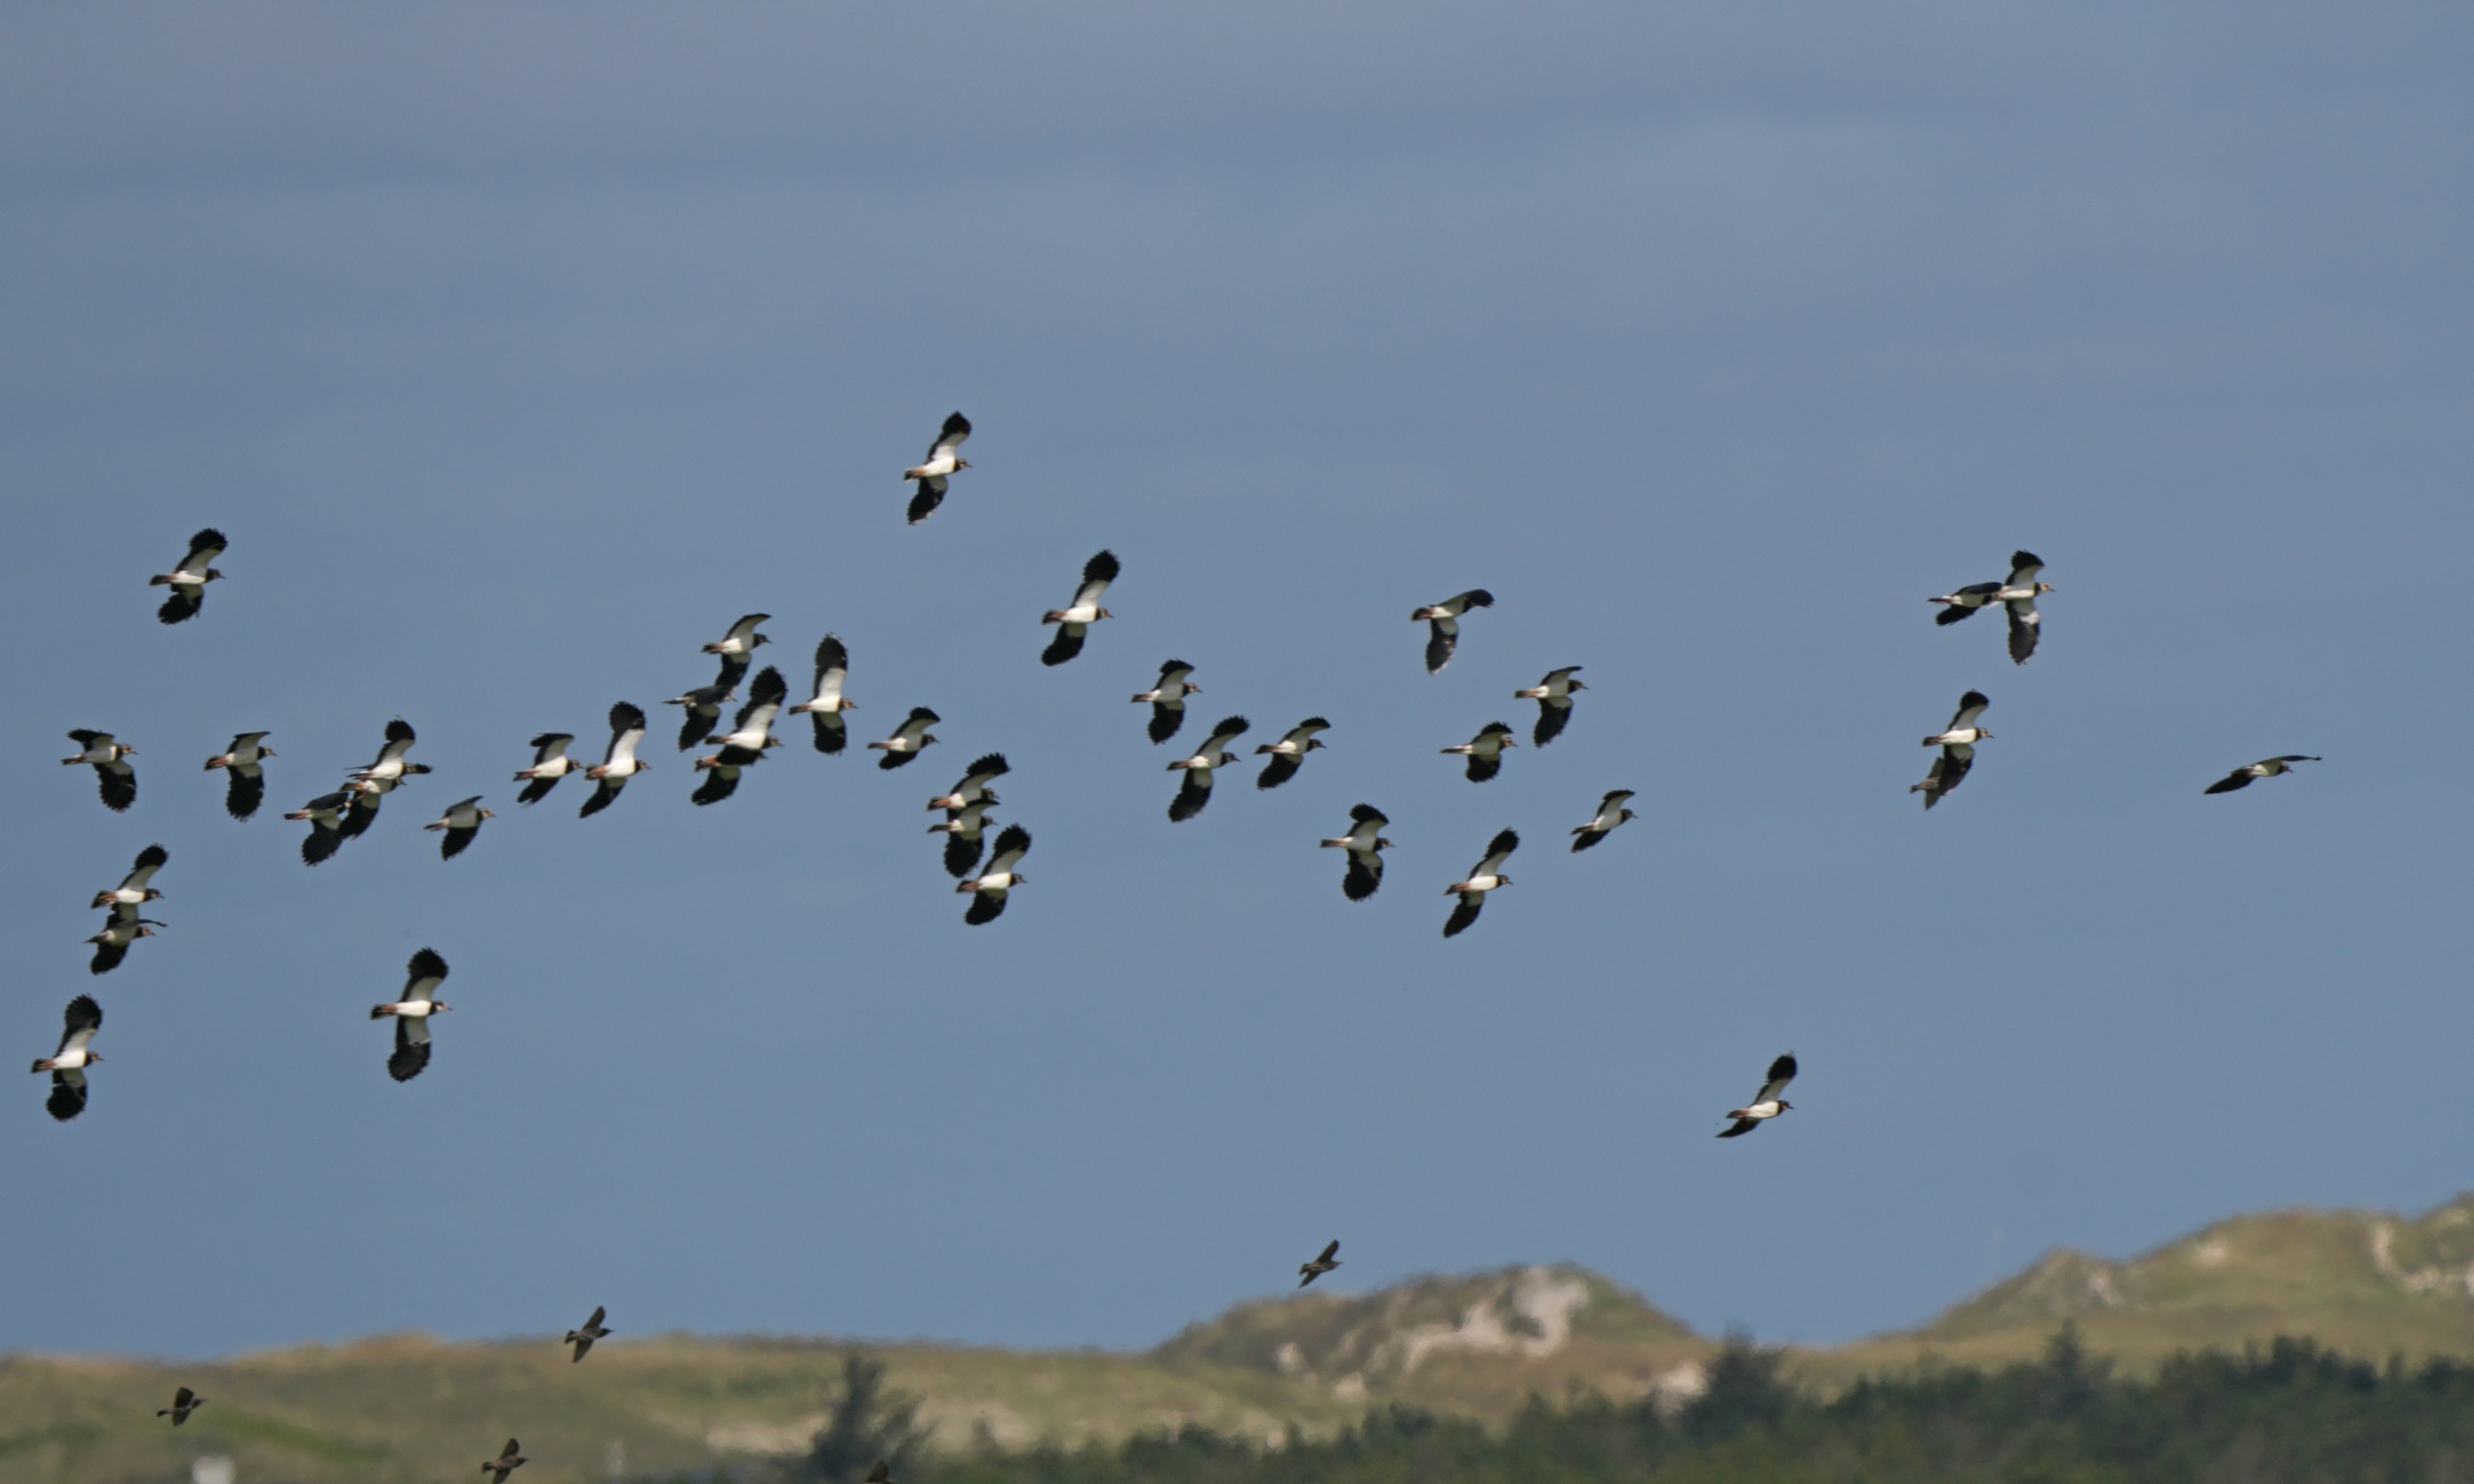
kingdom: Animalia
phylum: Chordata
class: Aves
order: Charadriiformes
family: Charadriidae
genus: Vanellus
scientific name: Vanellus vanellus
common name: Vibe
